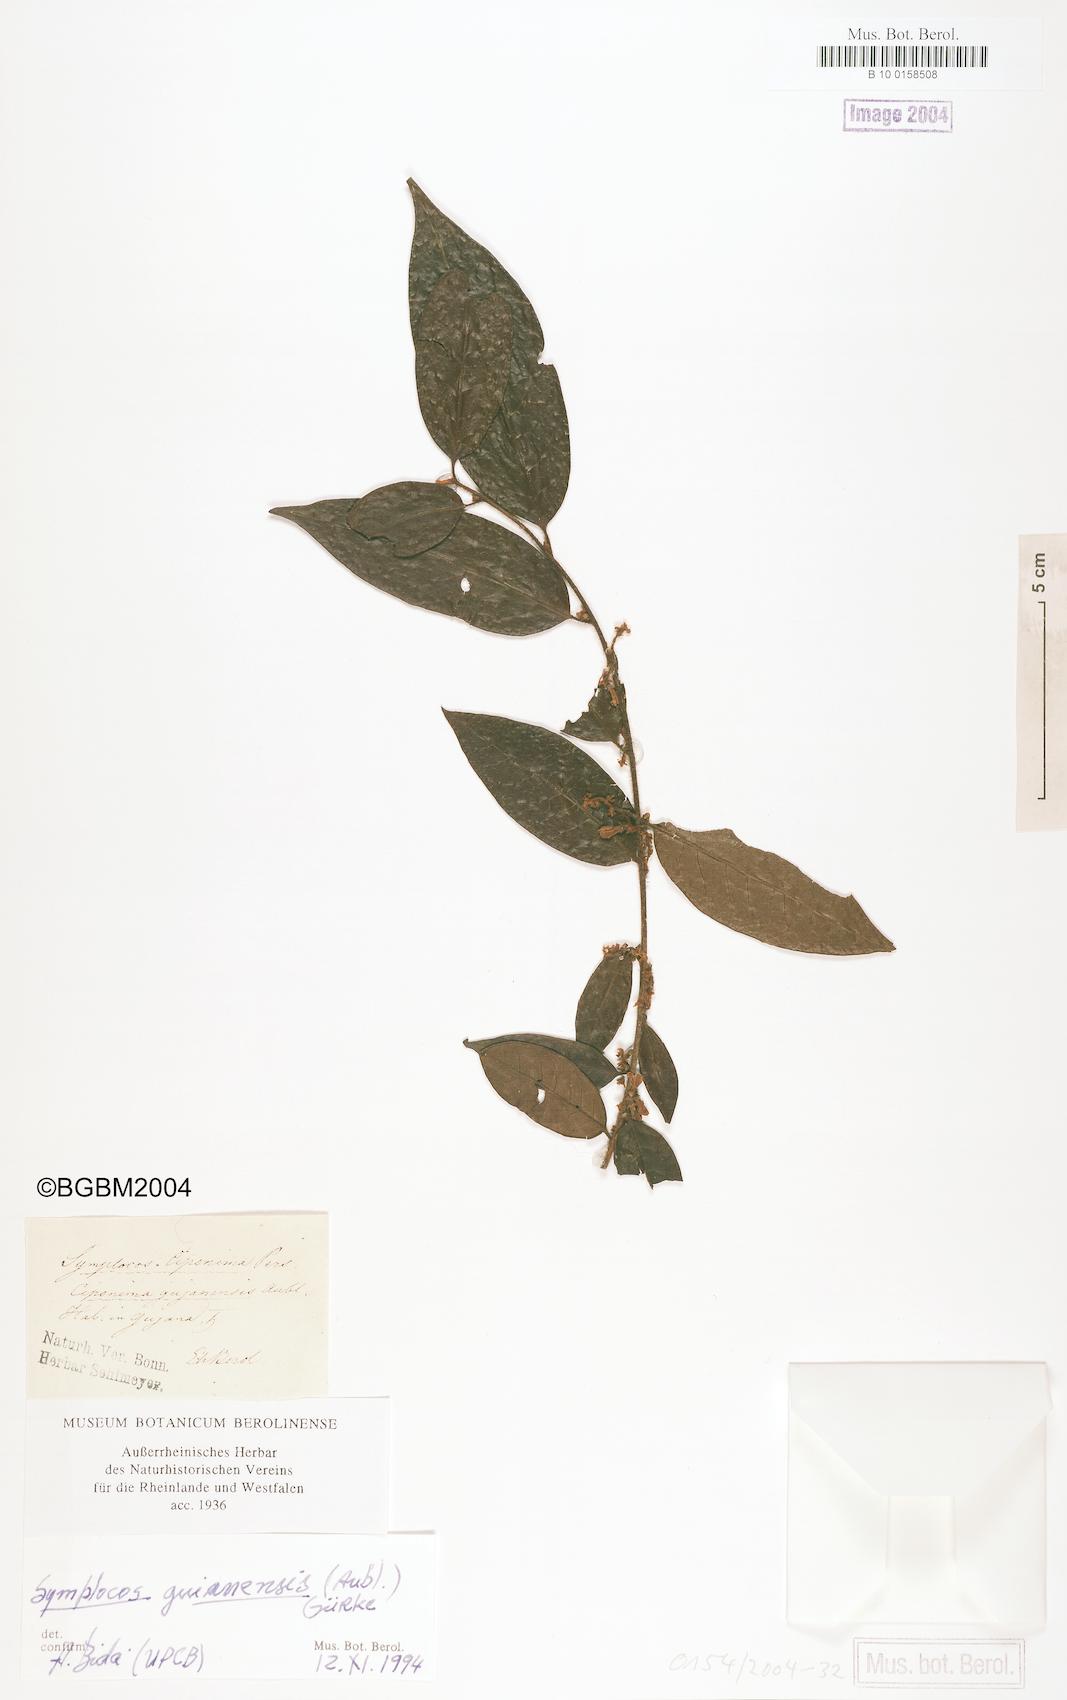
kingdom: Plantae
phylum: Tracheophyta
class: Magnoliopsida
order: Ericales
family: Symplocaceae
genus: Symplocos
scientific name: Symplocos guianensis
